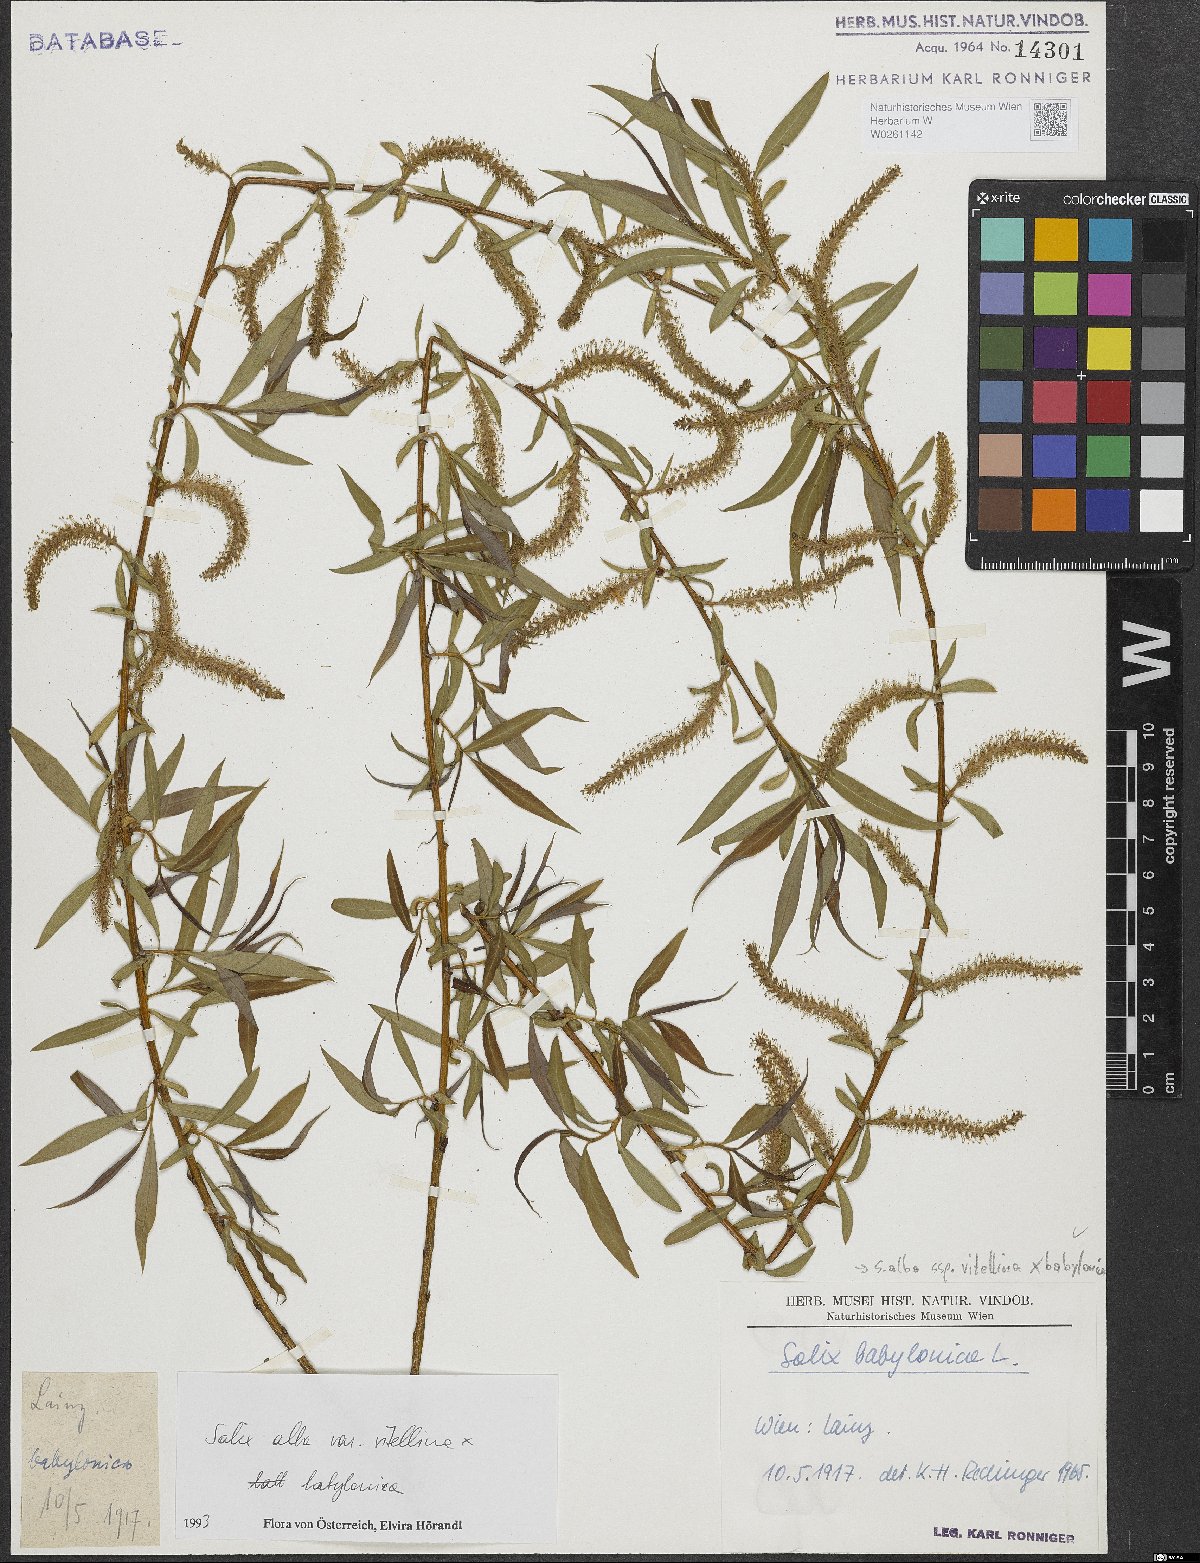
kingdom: Plantae
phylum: Tracheophyta
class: Magnoliopsida
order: Malpighiales
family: Salicaceae
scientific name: Salicaceae
